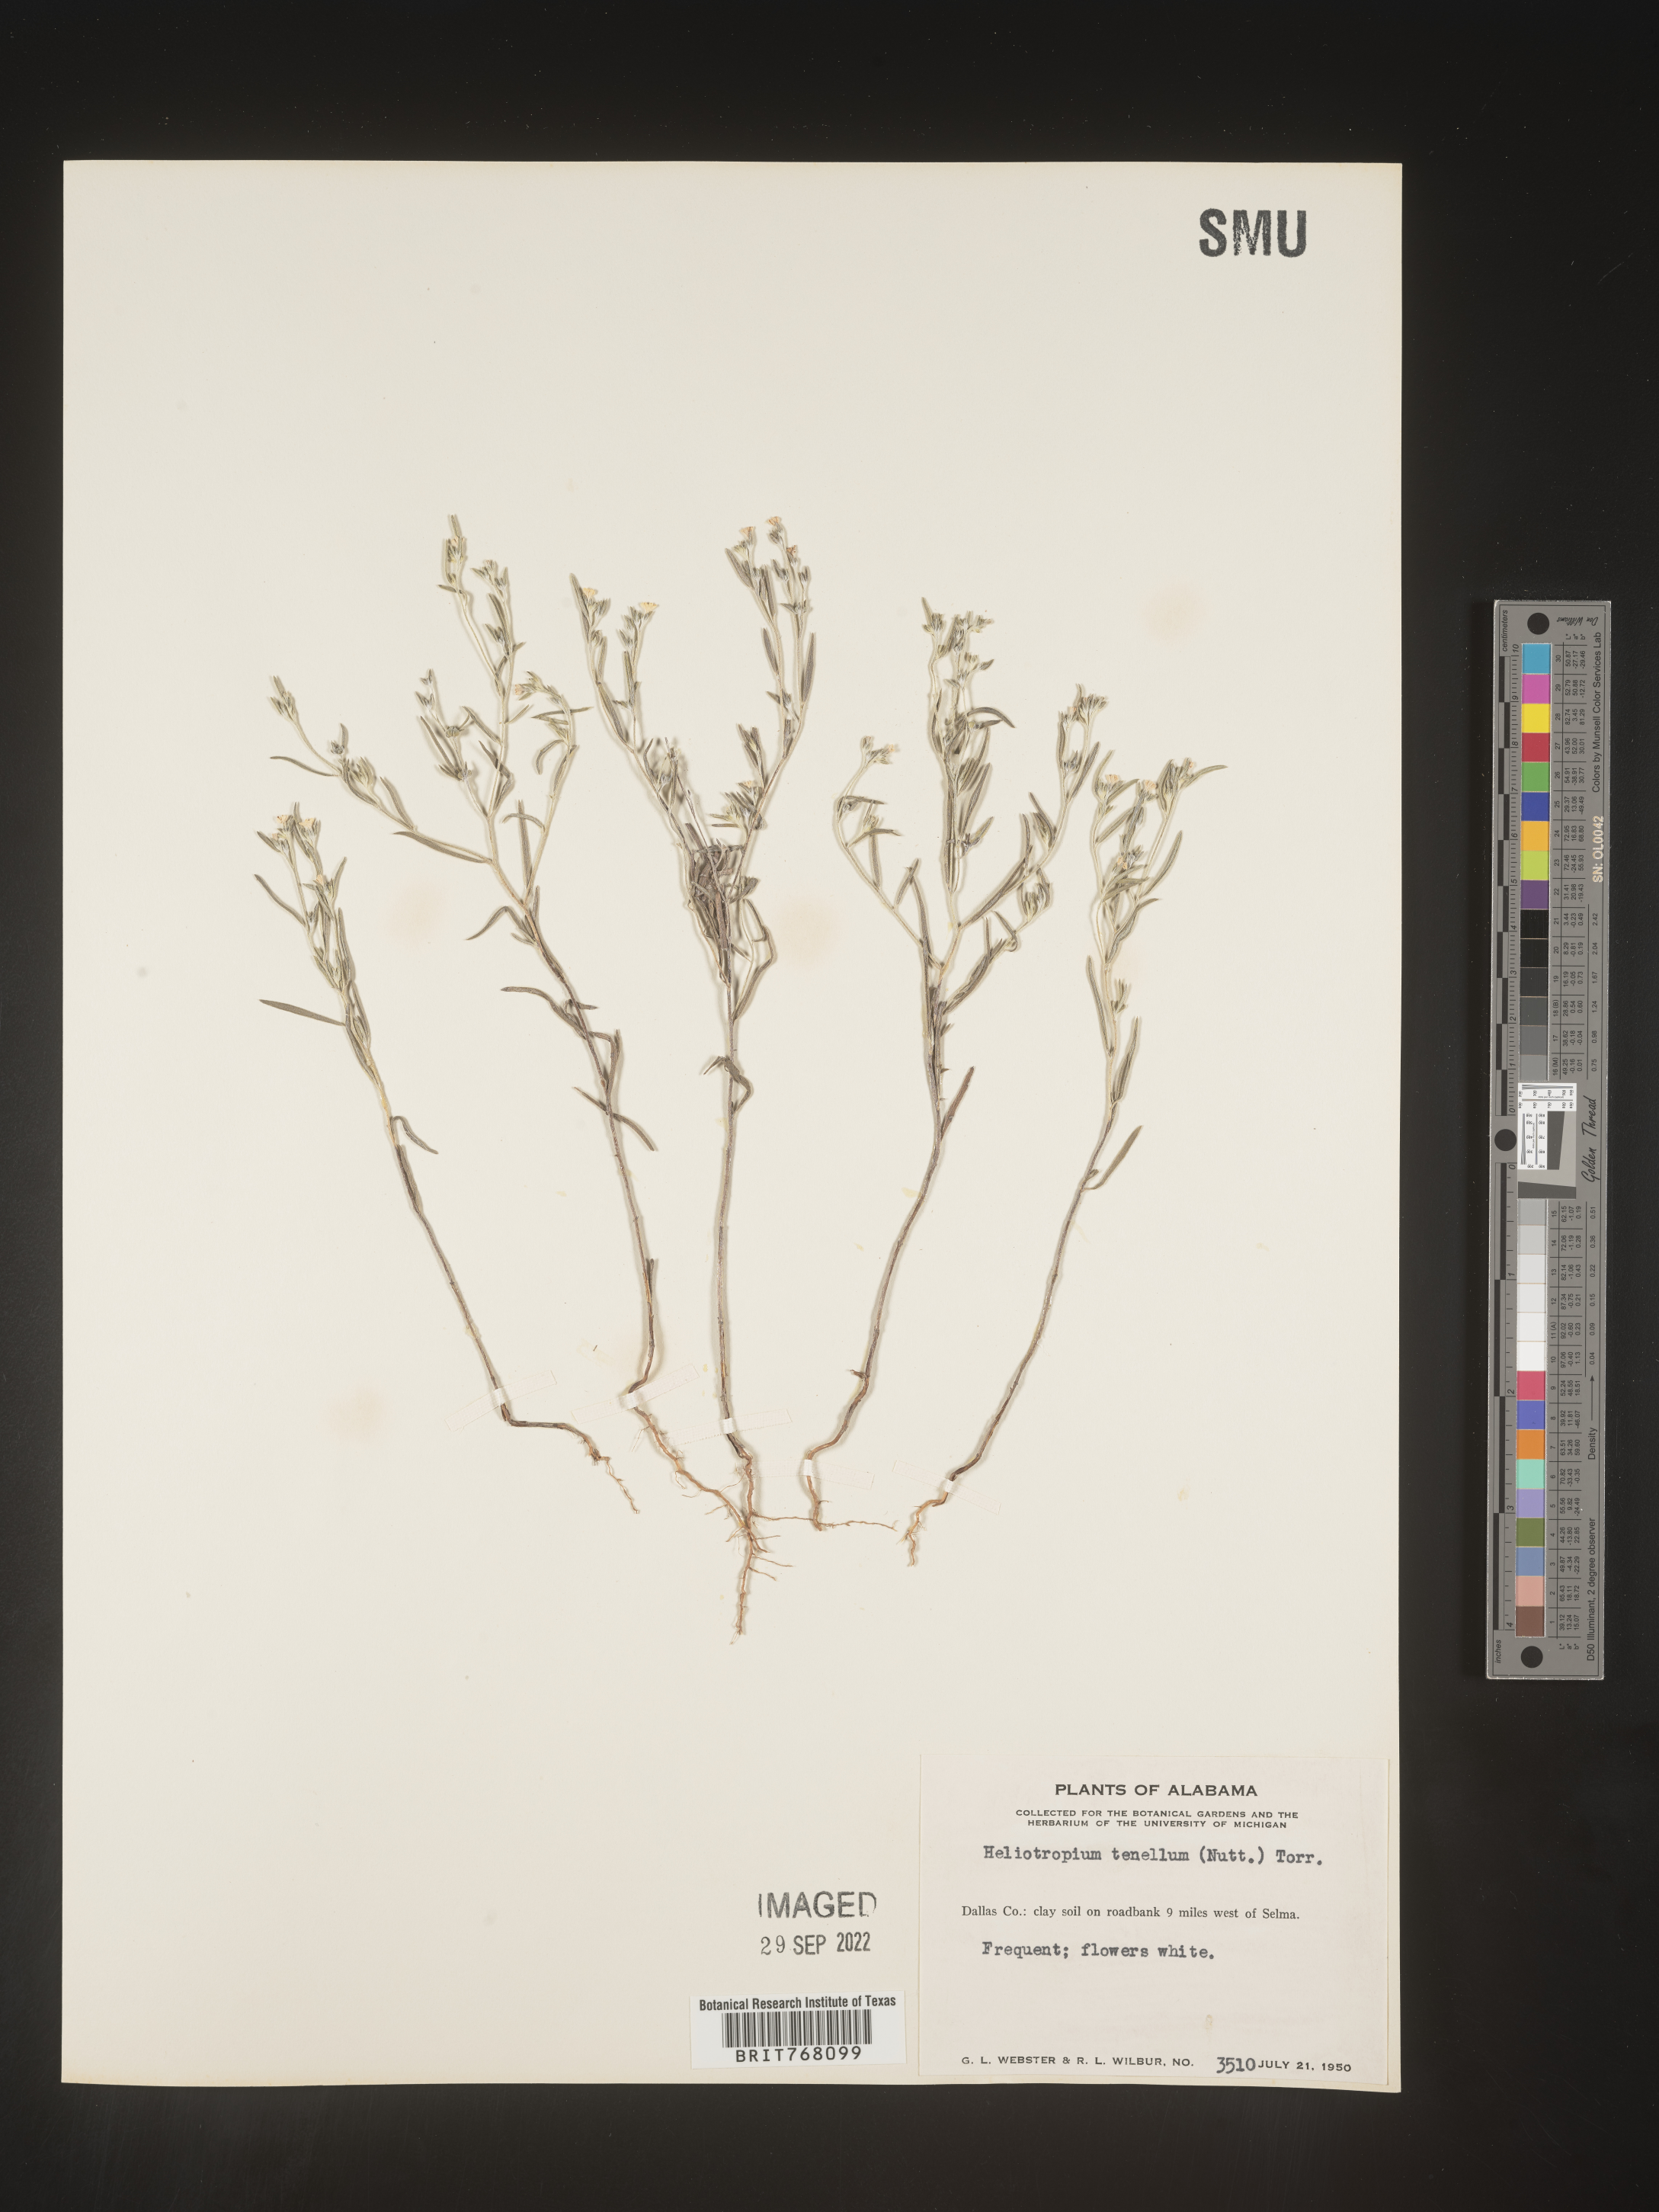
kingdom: Plantae
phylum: Tracheophyta
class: Magnoliopsida
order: Boraginales
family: Heliotropiaceae
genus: Euploca
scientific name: Euploca tenella
